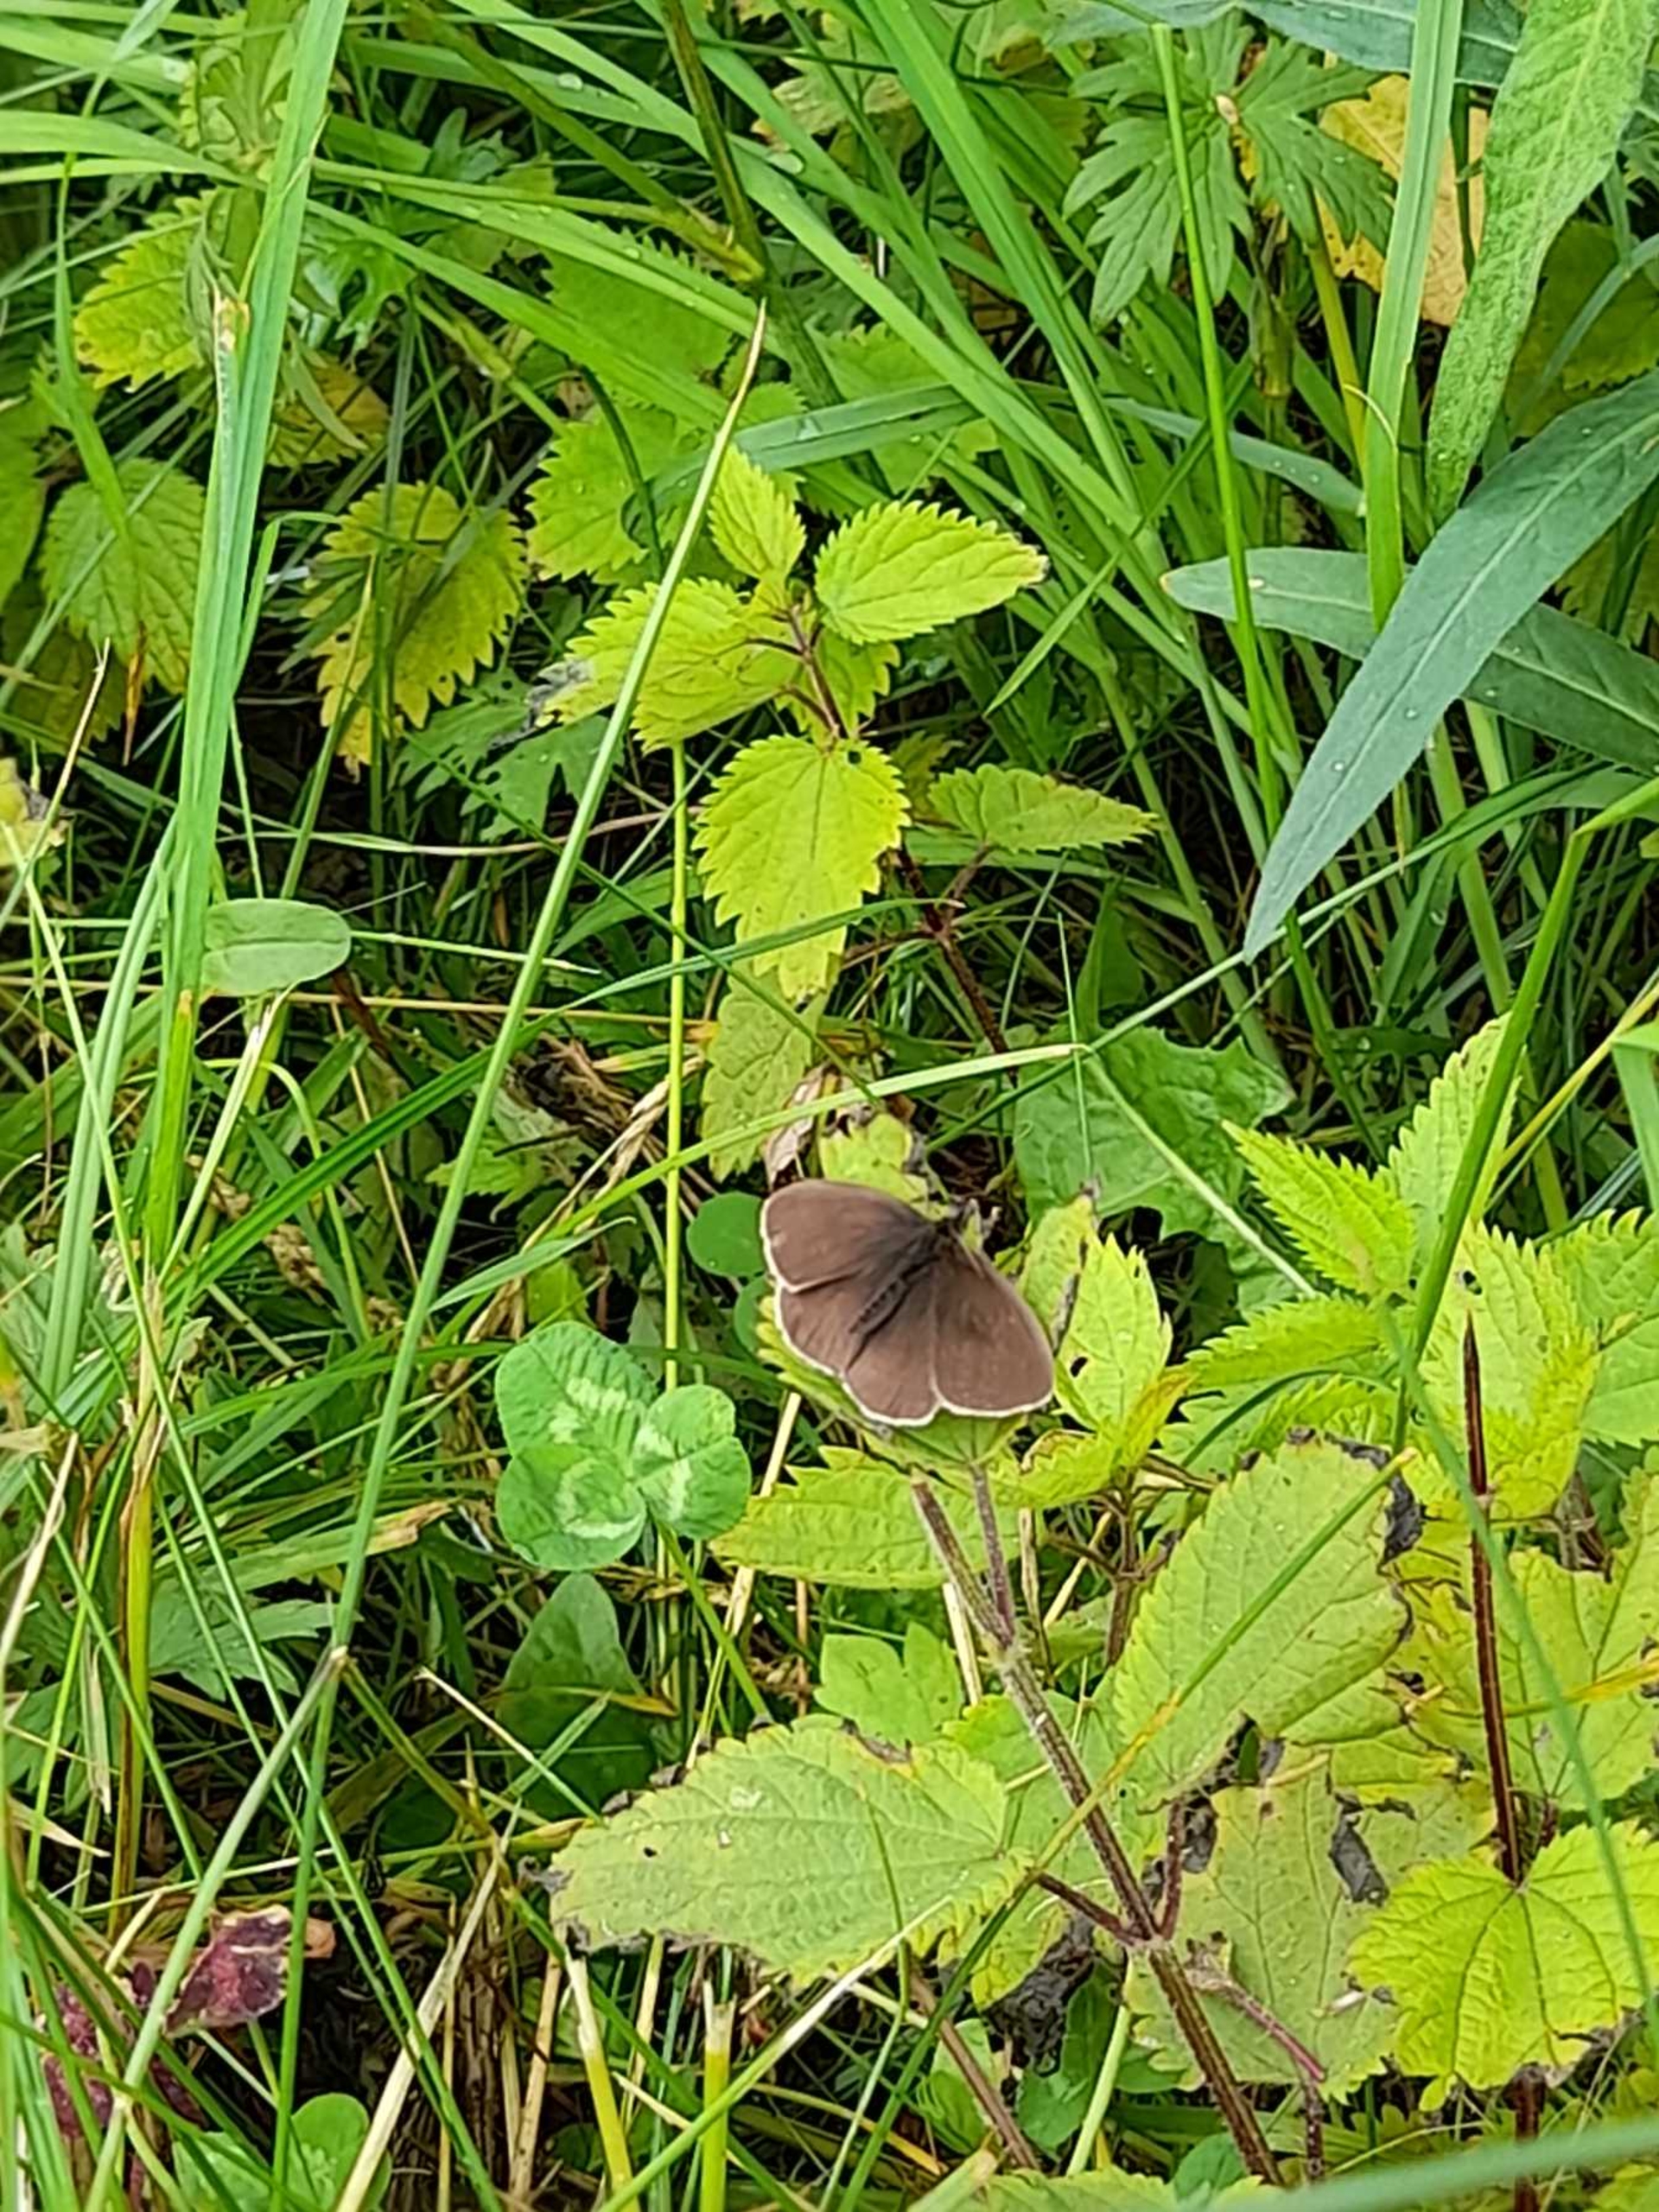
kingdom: Animalia
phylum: Arthropoda
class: Insecta
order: Lepidoptera
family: Nymphalidae
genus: Aphantopus
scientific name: Aphantopus hyperantus
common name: Engrandøje
